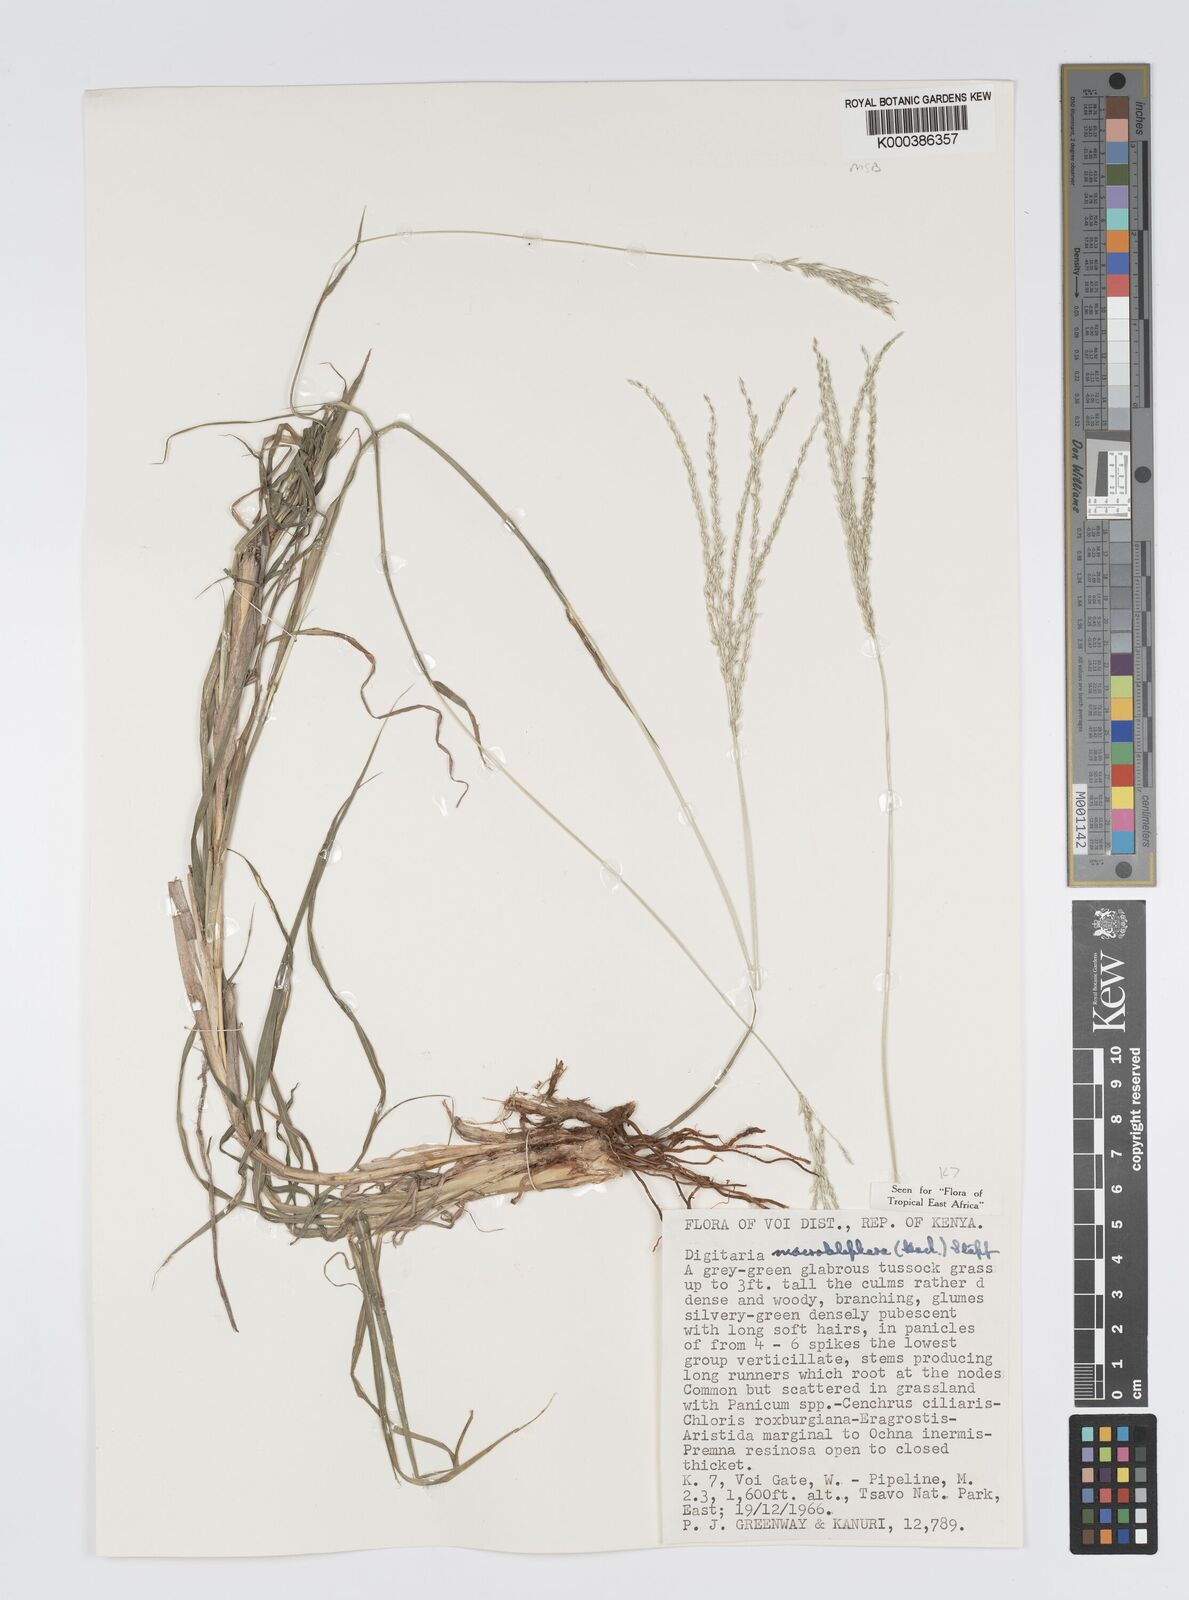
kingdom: Plantae
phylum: Tracheophyta
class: Liliopsida
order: Poales
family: Poaceae
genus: Digitaria
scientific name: Digitaria macroblephara
